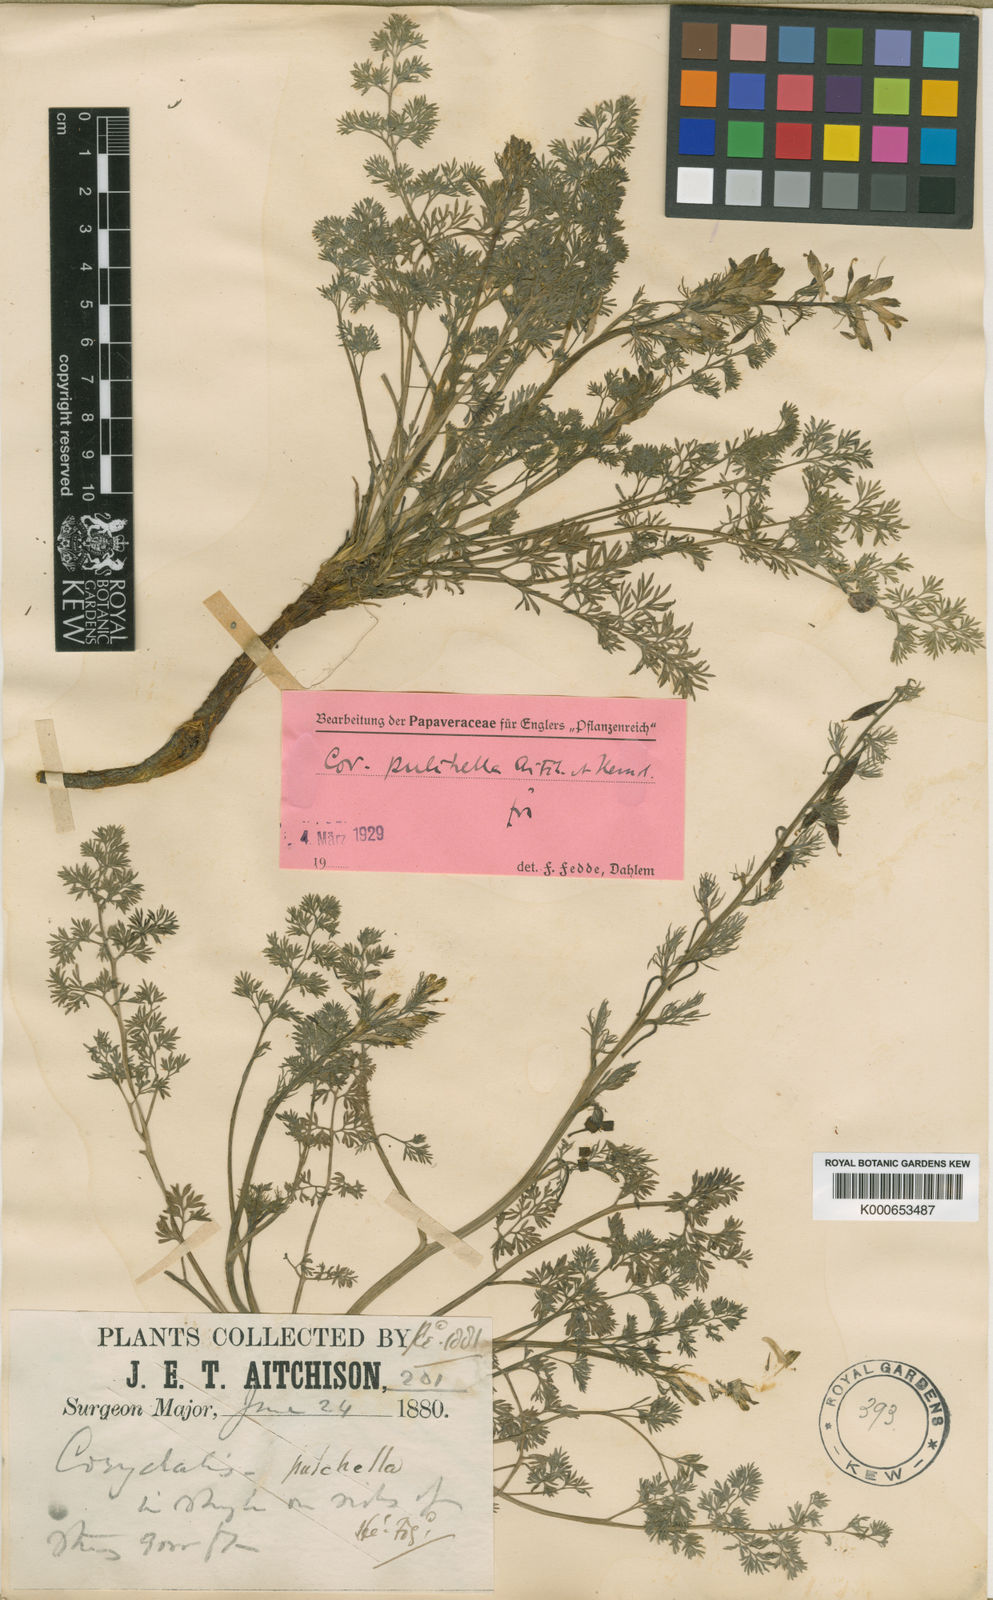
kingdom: Plantae
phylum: Tracheophyta
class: Magnoliopsida
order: Ranunculales
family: Papaveraceae
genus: Corydalis
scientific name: Corydalis pulchella
